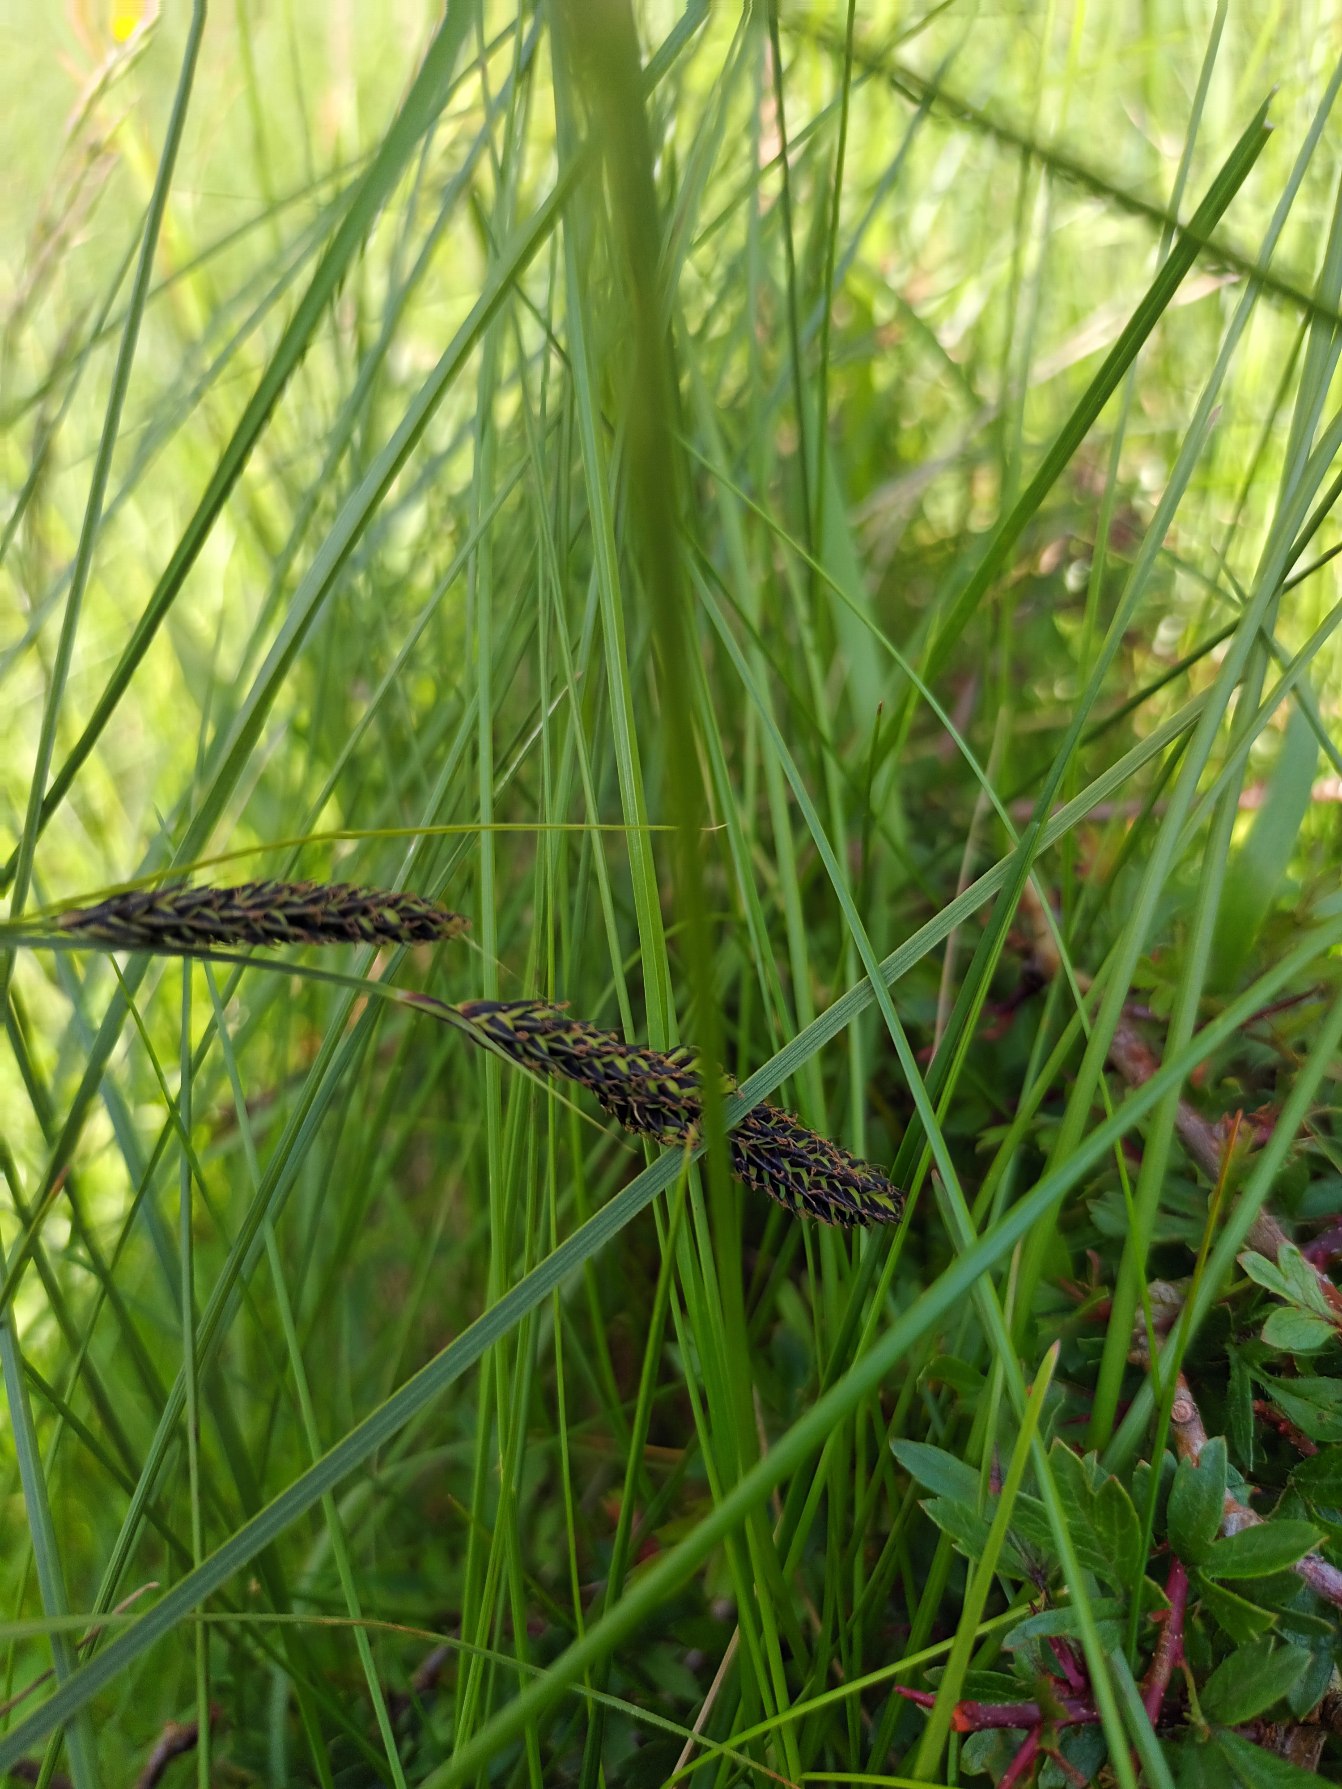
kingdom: Plantae
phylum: Tracheophyta
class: Liliopsida
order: Poales
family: Cyperaceae
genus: Carex
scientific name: Carex hartmaniorum
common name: Hartmans star
